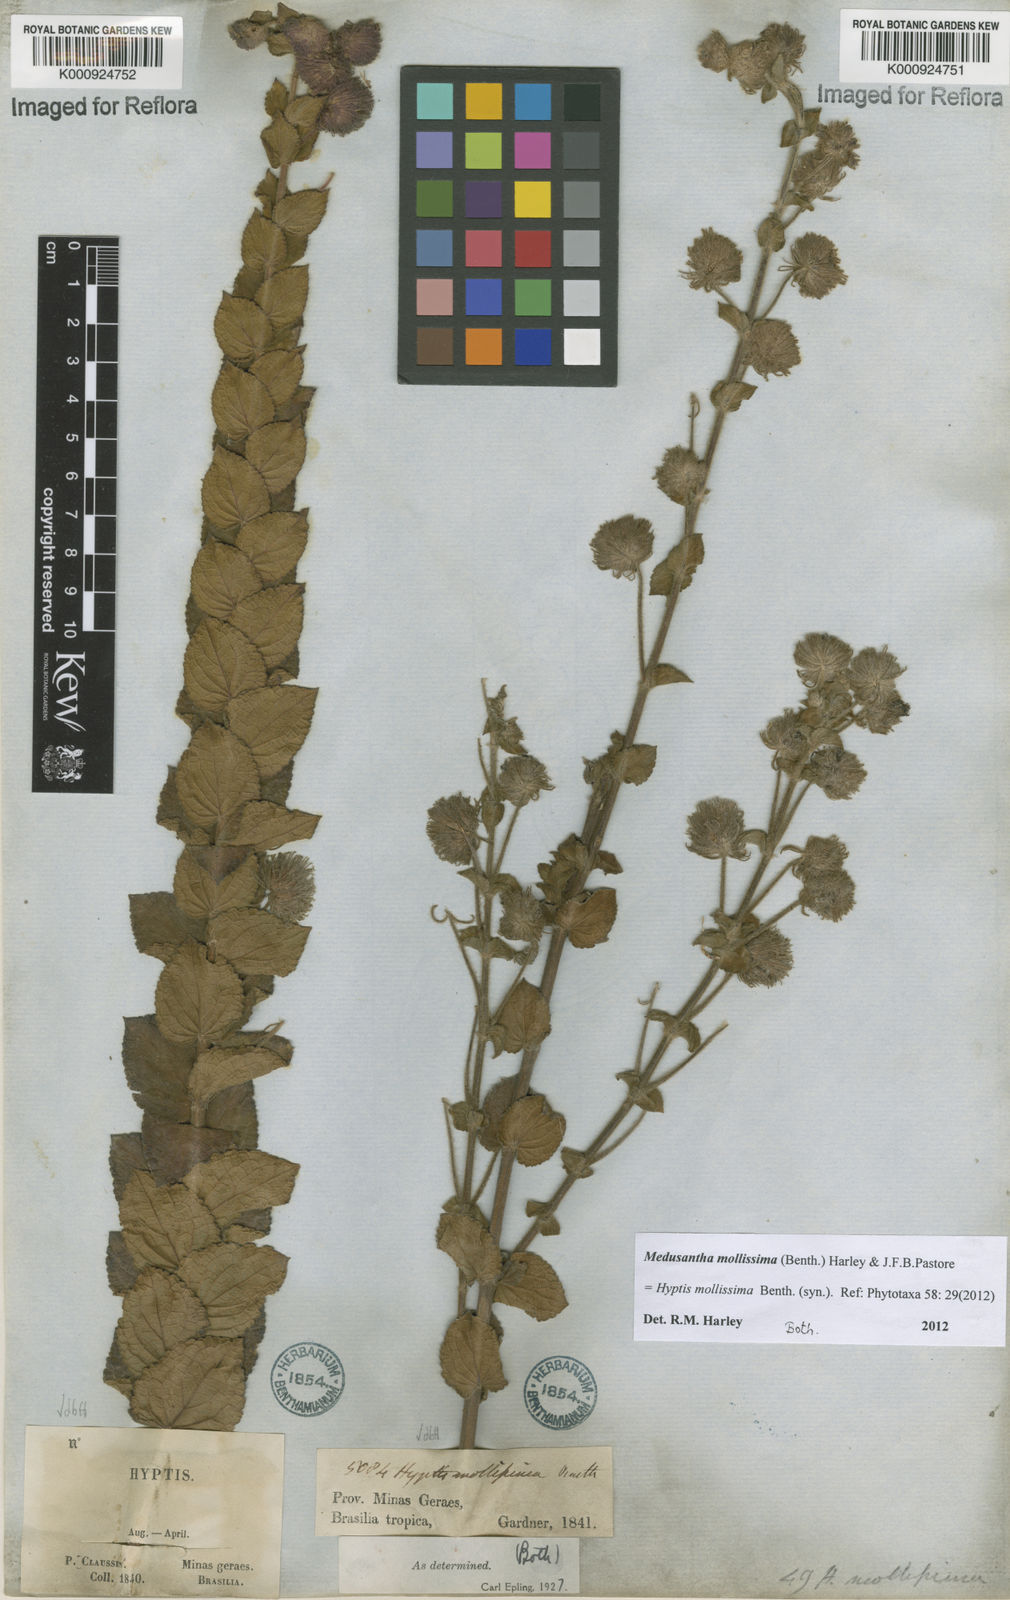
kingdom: Plantae
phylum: Tracheophyta
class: Magnoliopsida
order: Lamiales
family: Lamiaceae
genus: Medusantha
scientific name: Medusantha mollissima
